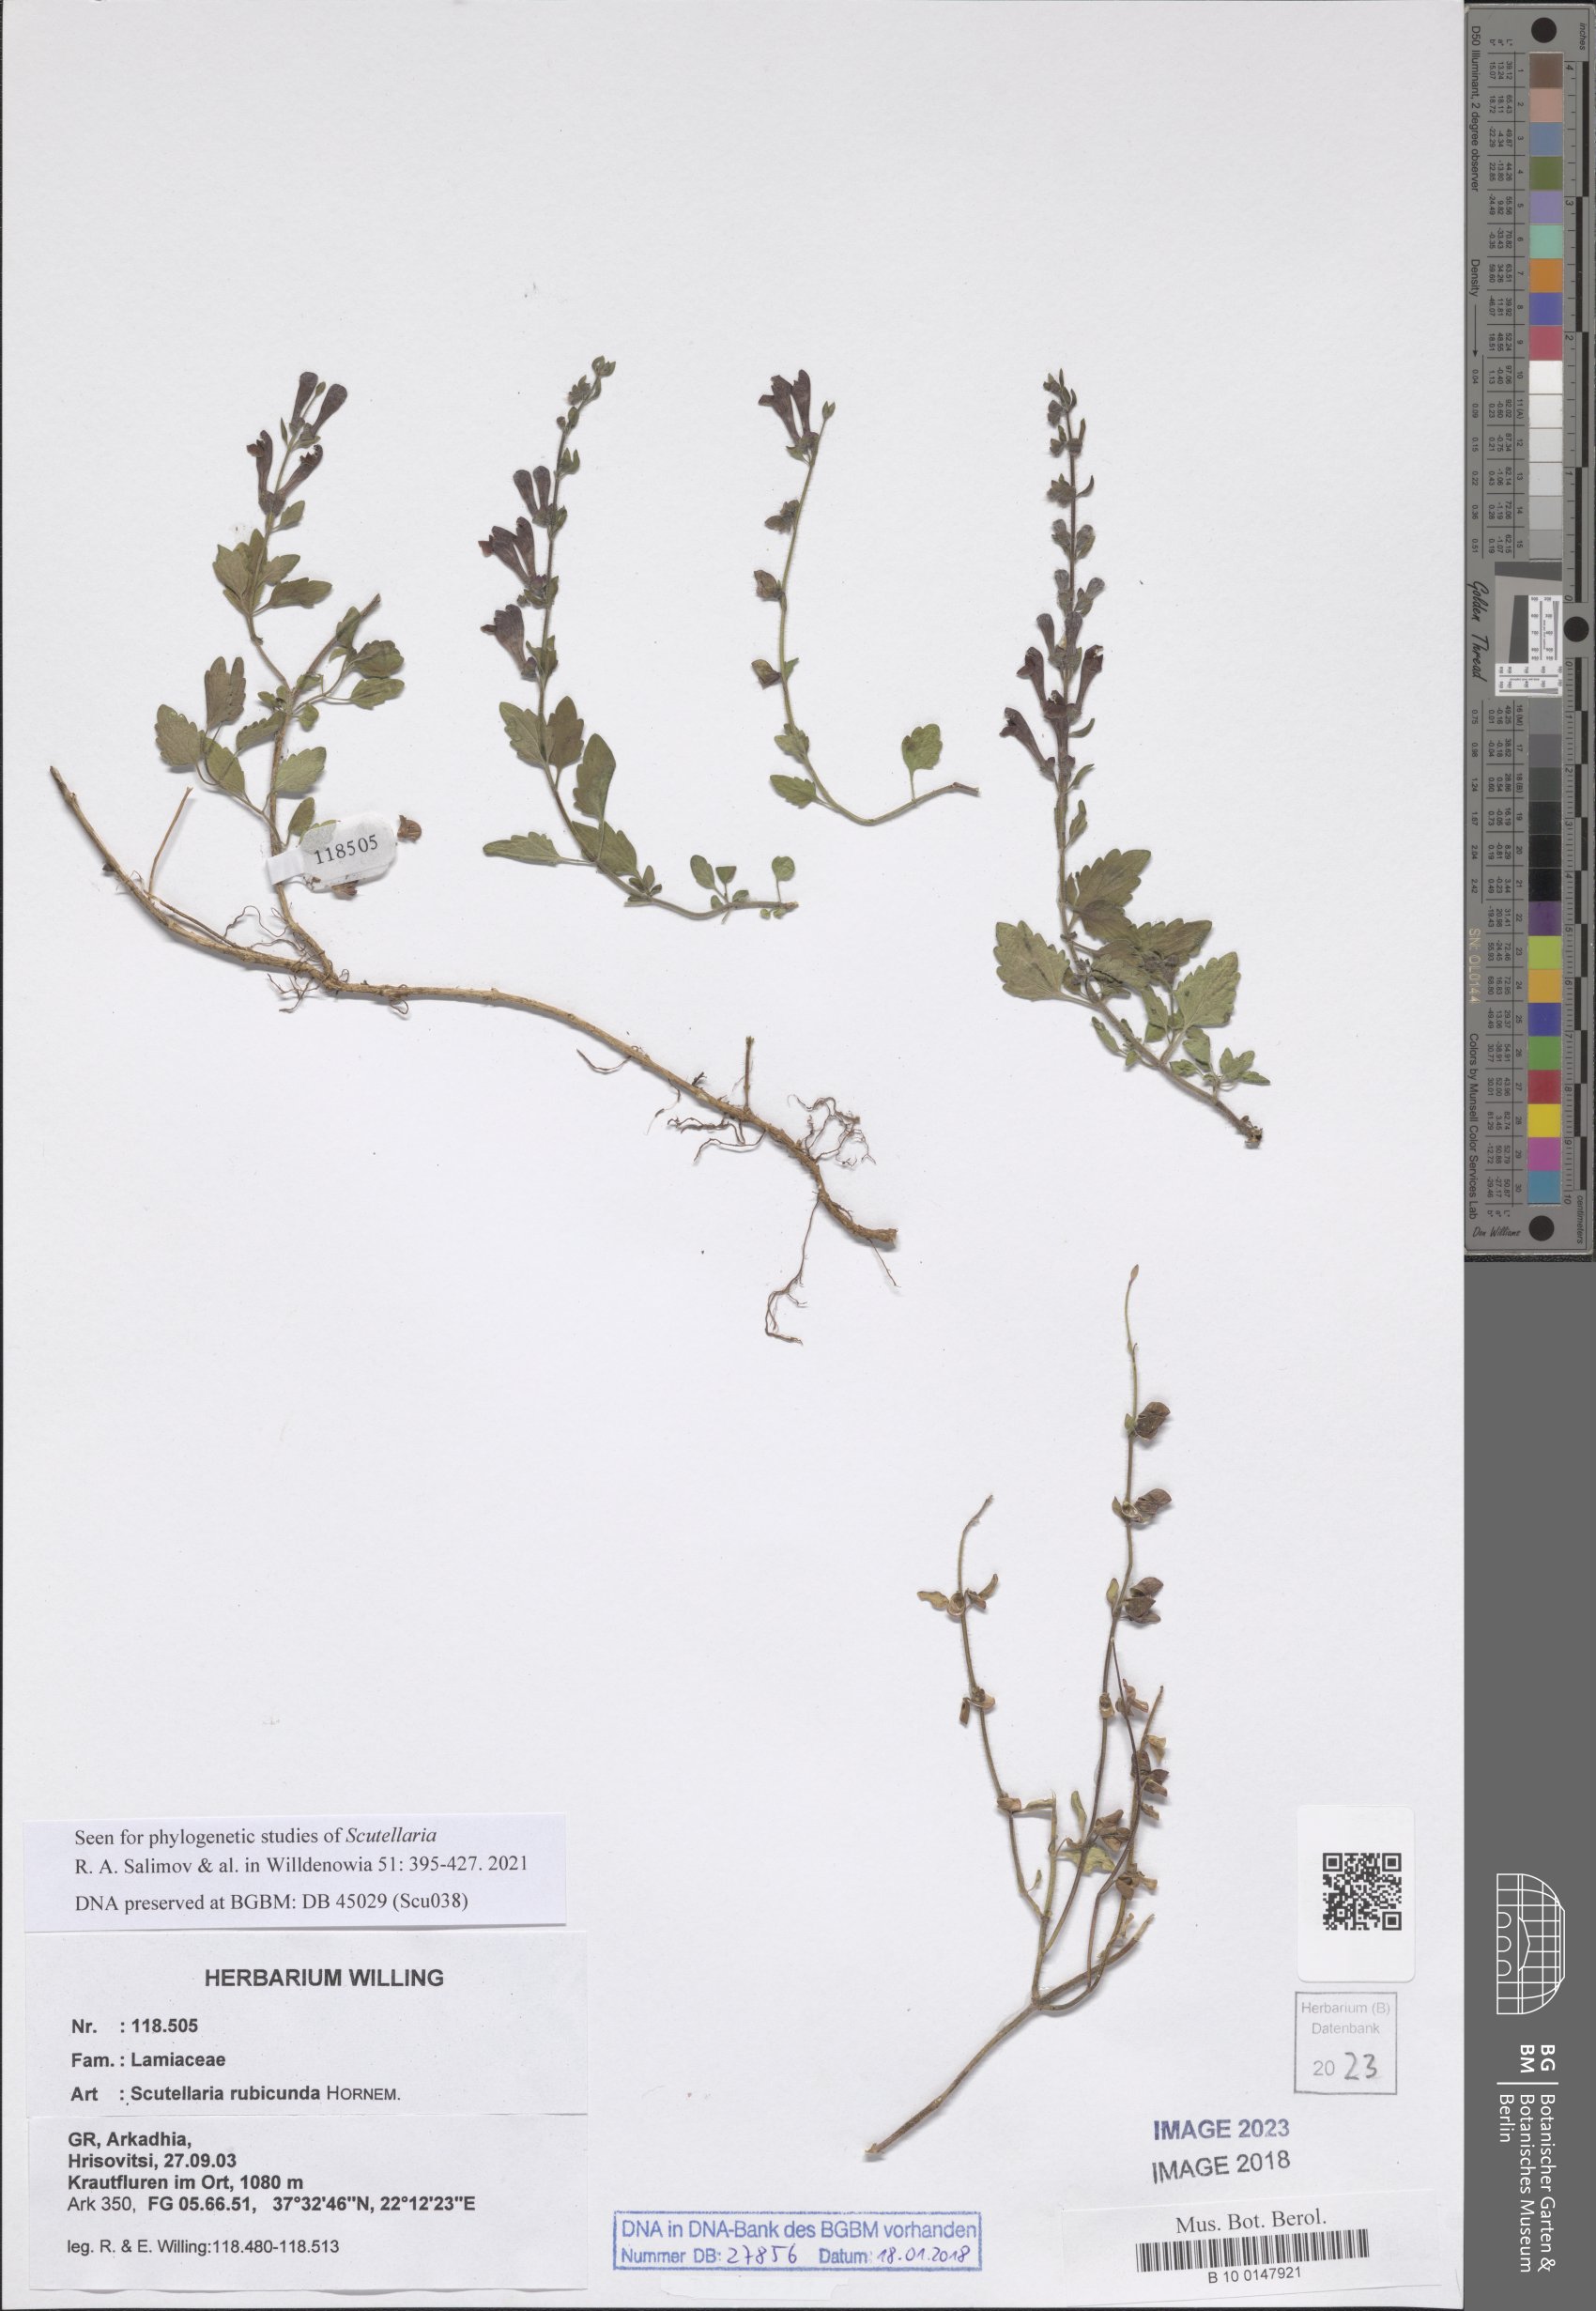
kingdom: Plantae
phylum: Tracheophyta
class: Magnoliopsida
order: Lamiales
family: Lamiaceae
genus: Scutellaria
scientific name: Scutellaria rubicunda
